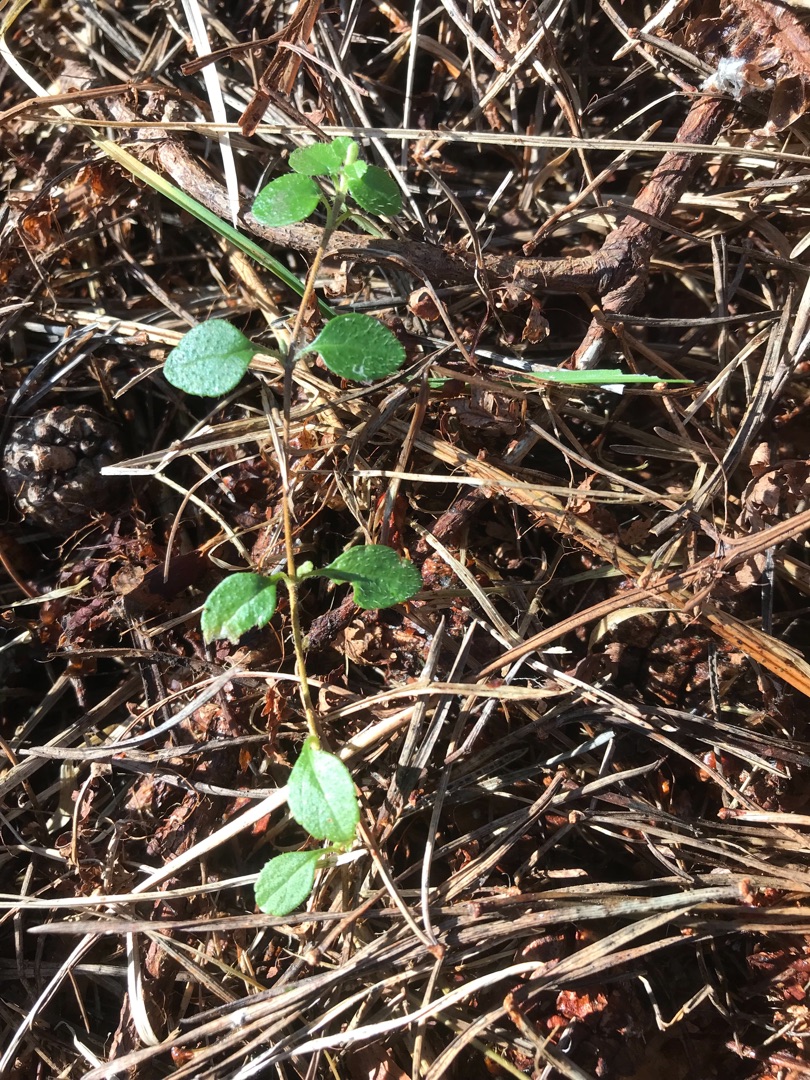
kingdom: Plantae
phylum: Tracheophyta
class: Magnoliopsida
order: Dipsacales
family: Caprifoliaceae
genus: Linnaea
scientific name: Linnaea borealis
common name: Linnæa
